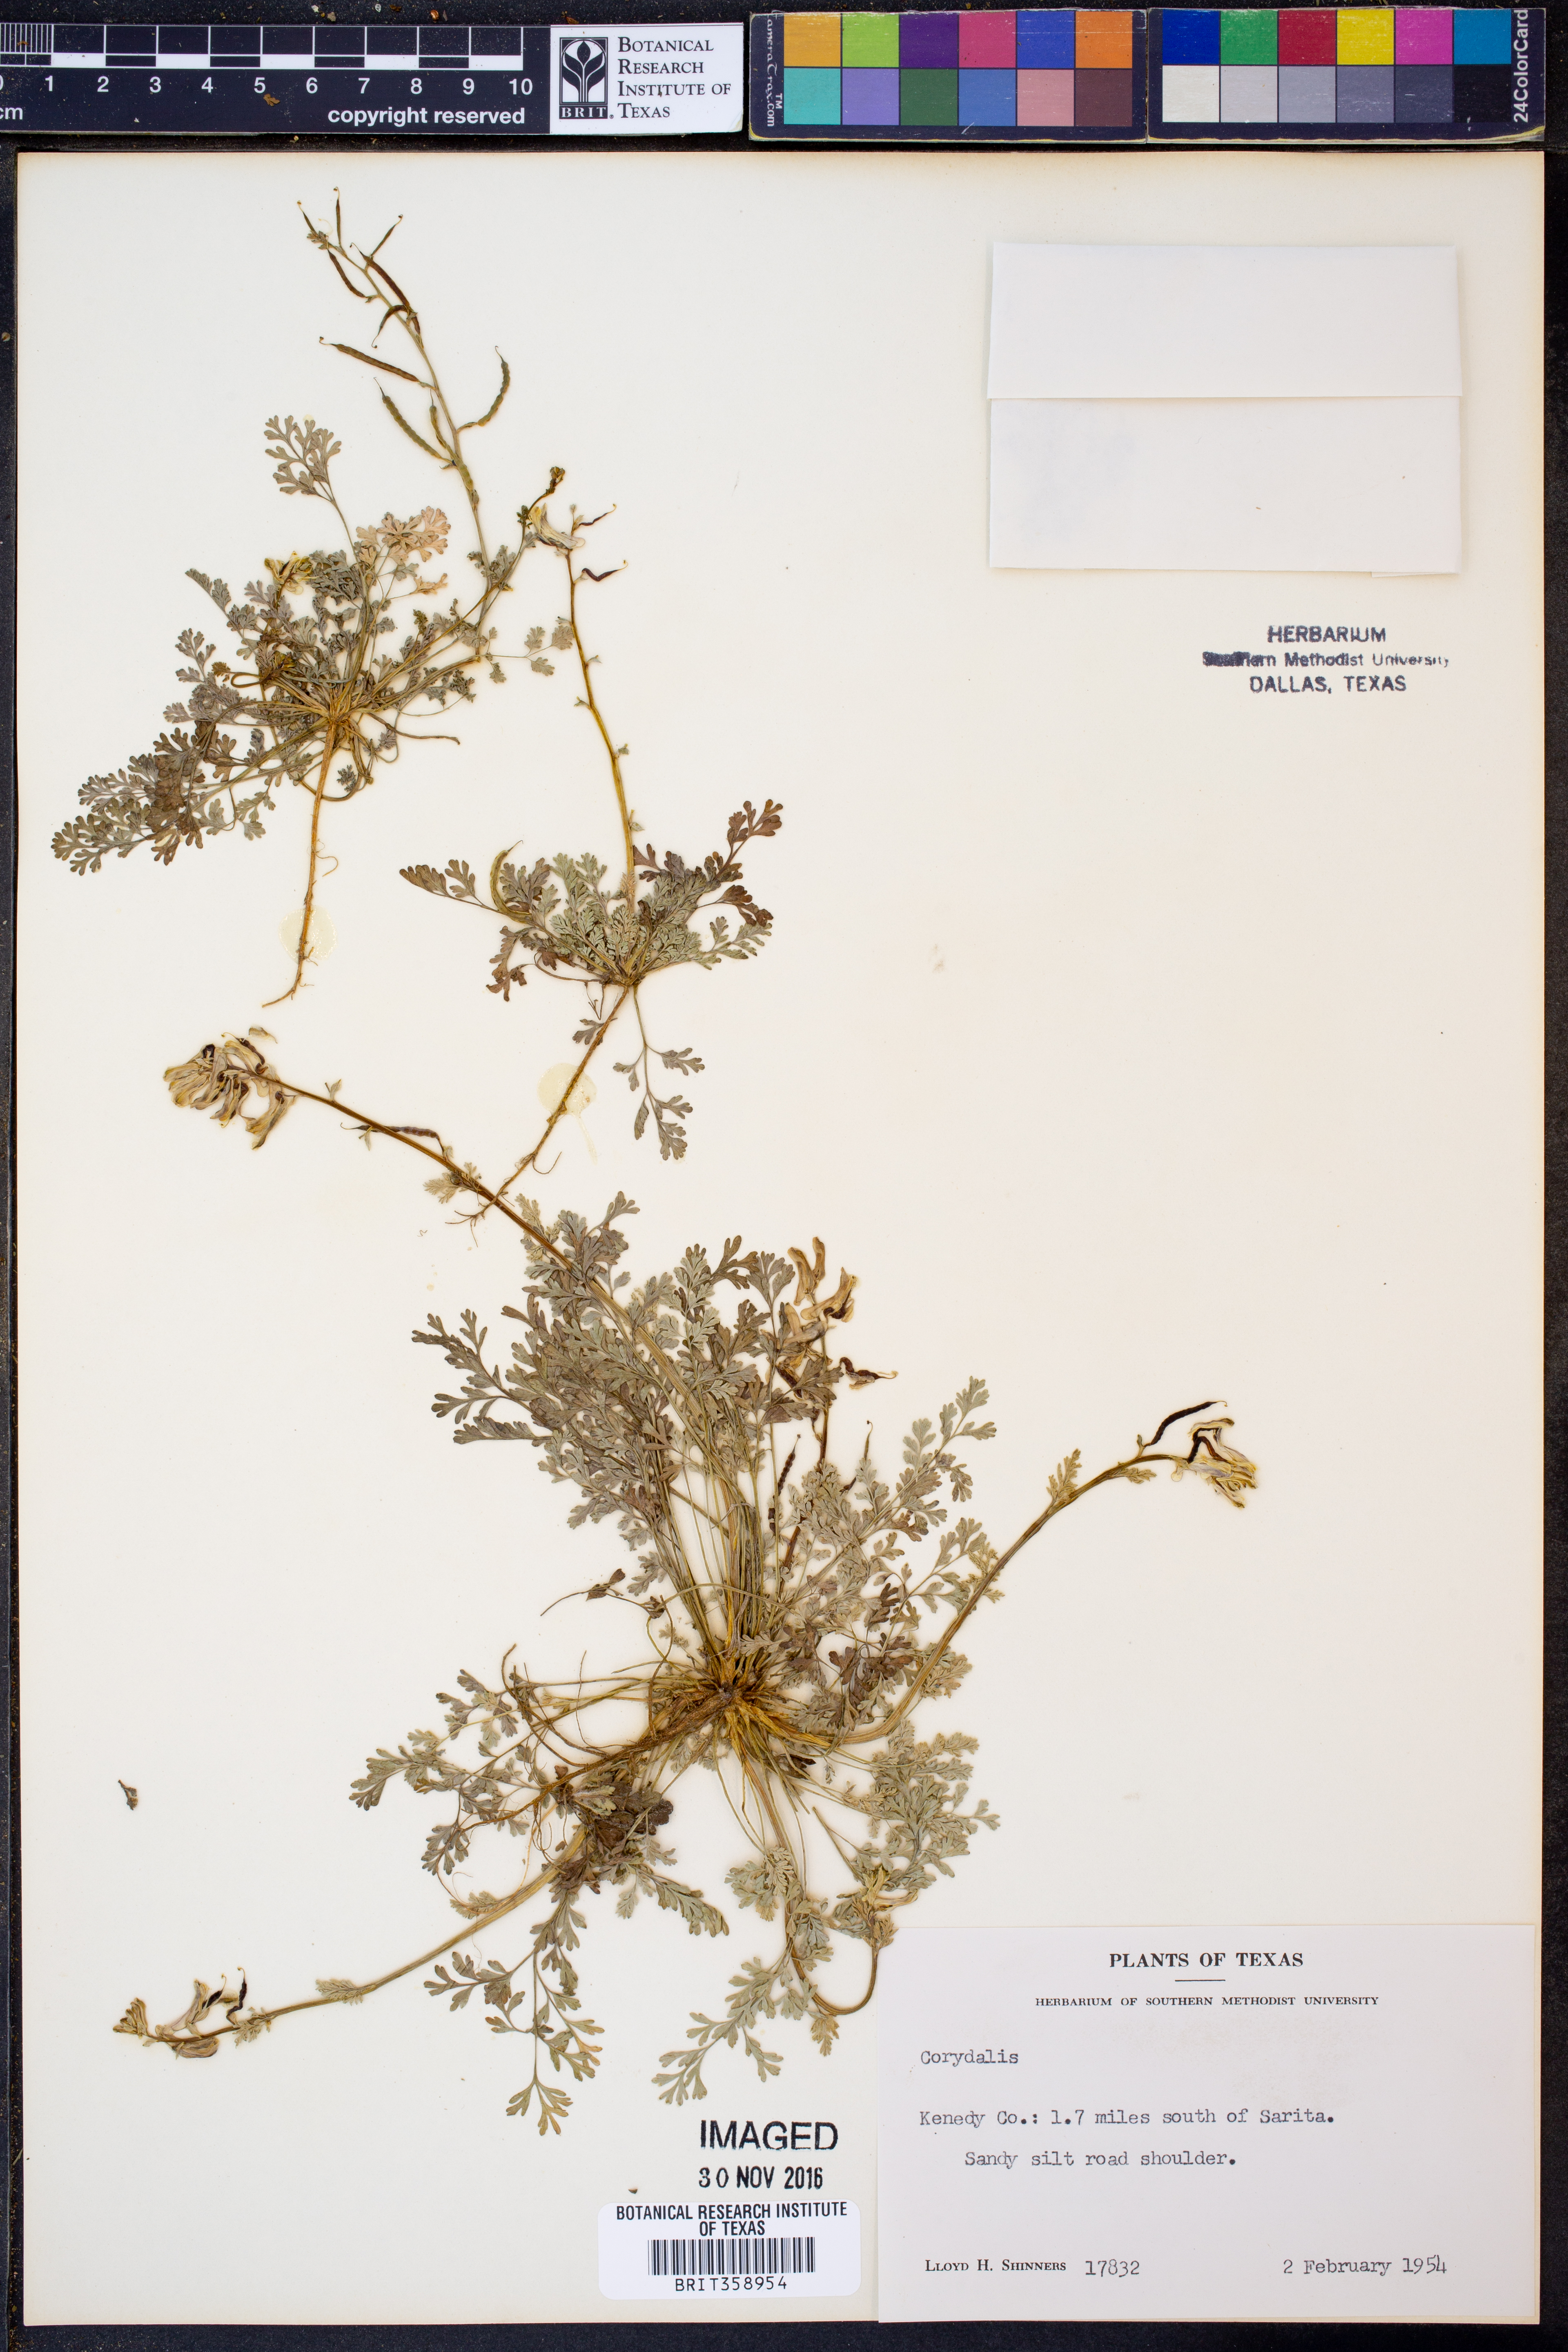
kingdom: Plantae
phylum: Tracheophyta
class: Magnoliopsida
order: Ranunculales
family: Papaveraceae
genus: Corydalis
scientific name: Corydalis
